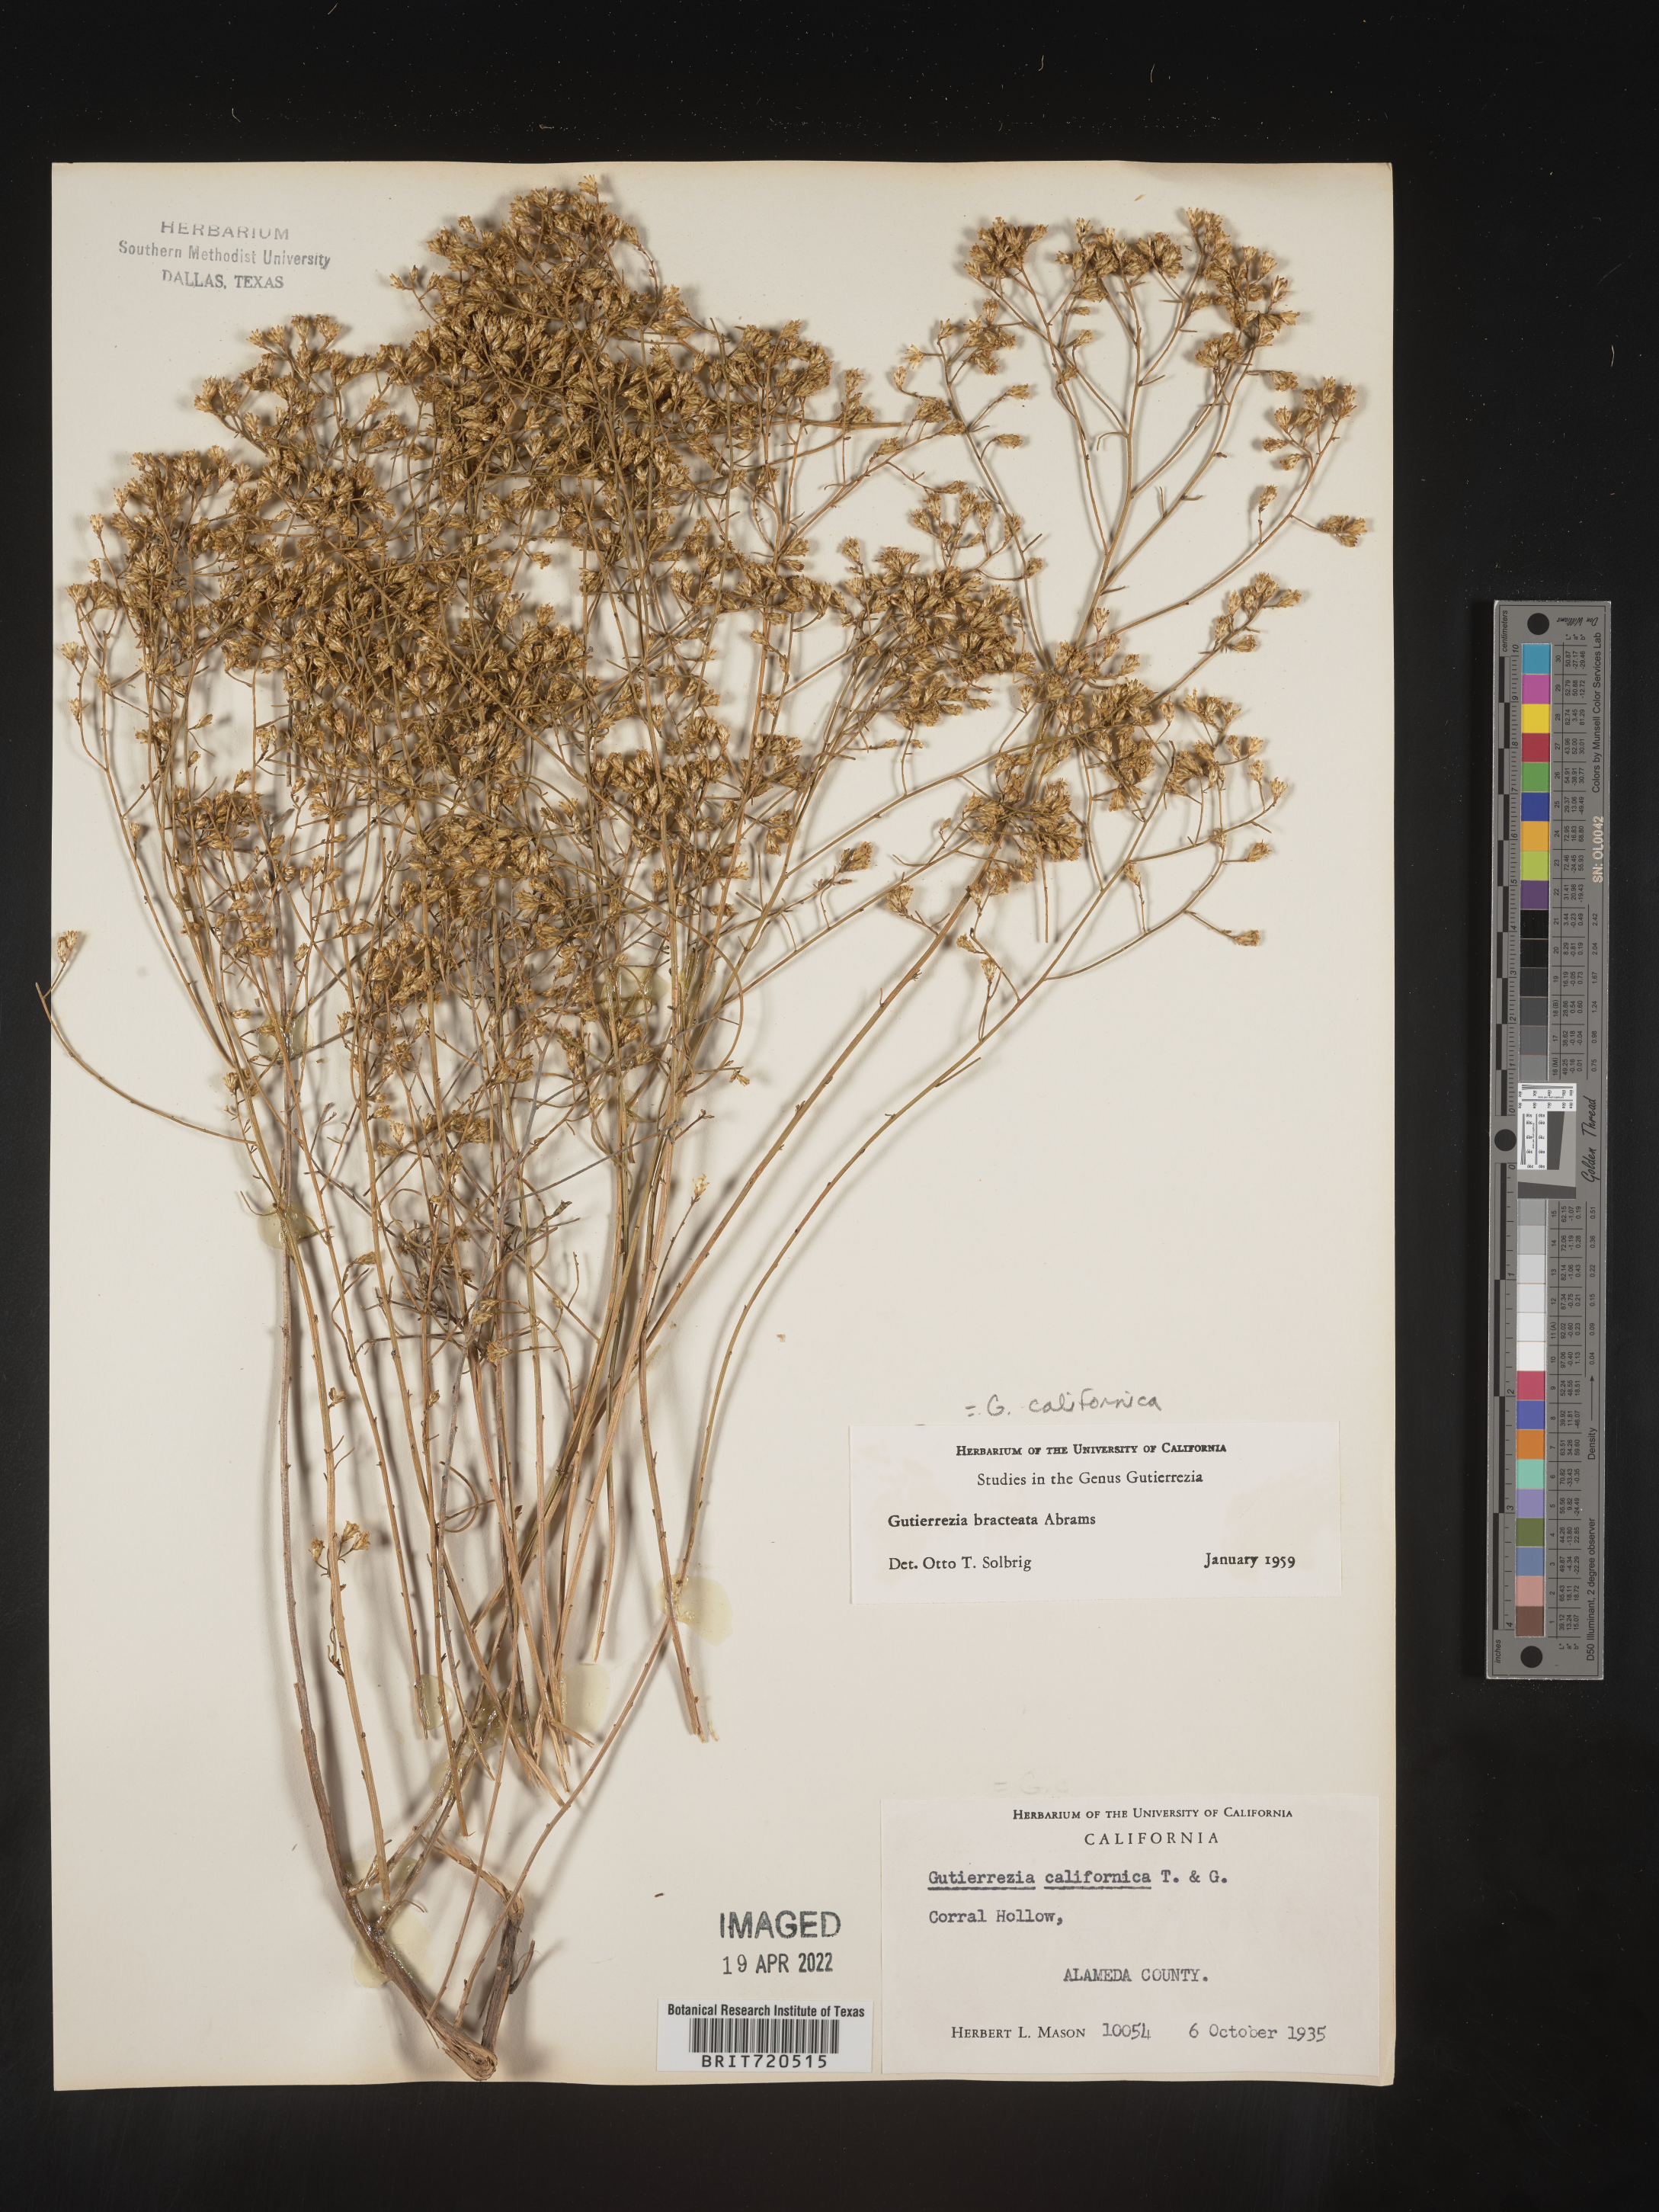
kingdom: Plantae
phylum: Tracheophyta
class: Magnoliopsida
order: Asterales
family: Asteraceae
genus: Gutierrezia
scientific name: Gutierrezia
